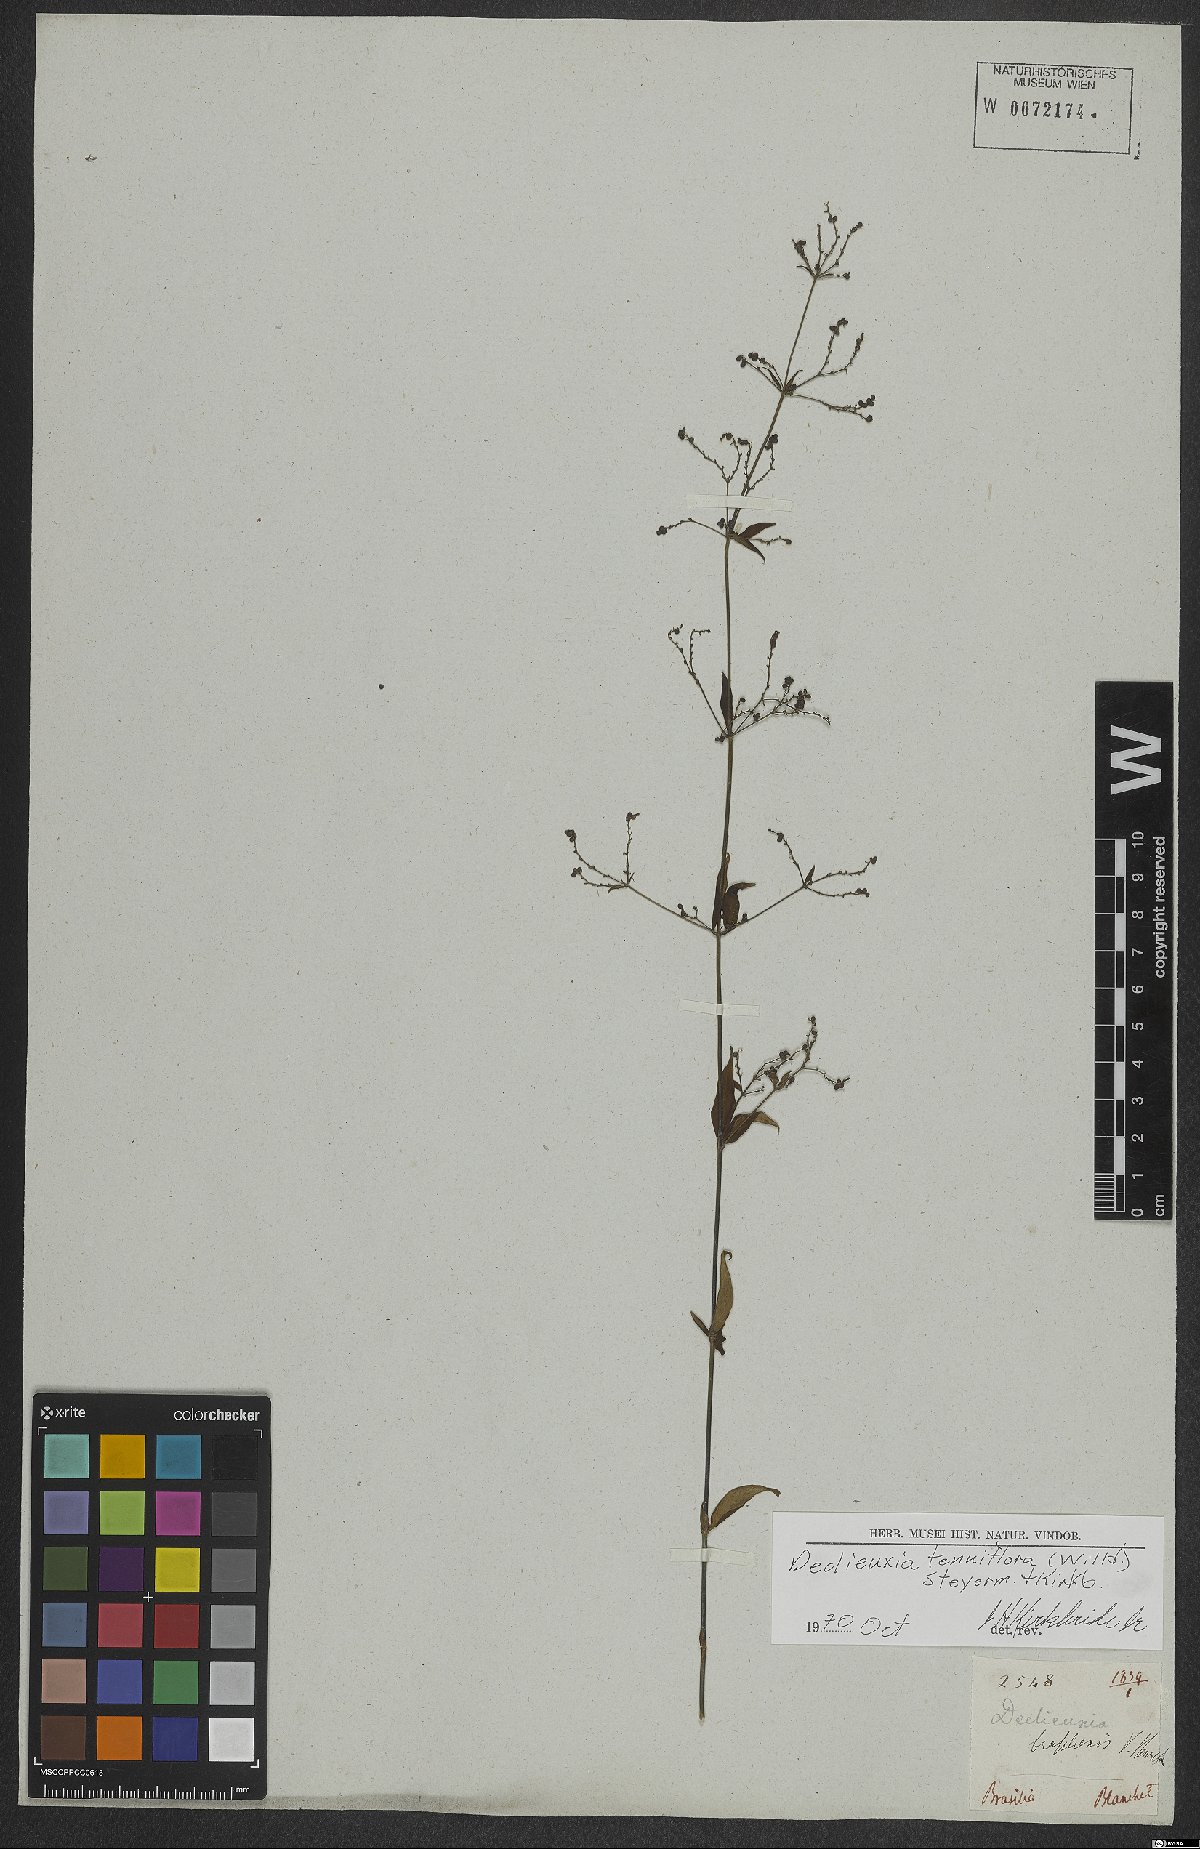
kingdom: Plantae
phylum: Tracheophyta
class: Magnoliopsida
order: Gentianales
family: Rubiaceae
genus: Declieuxia
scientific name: Declieuxia tenuiflora
